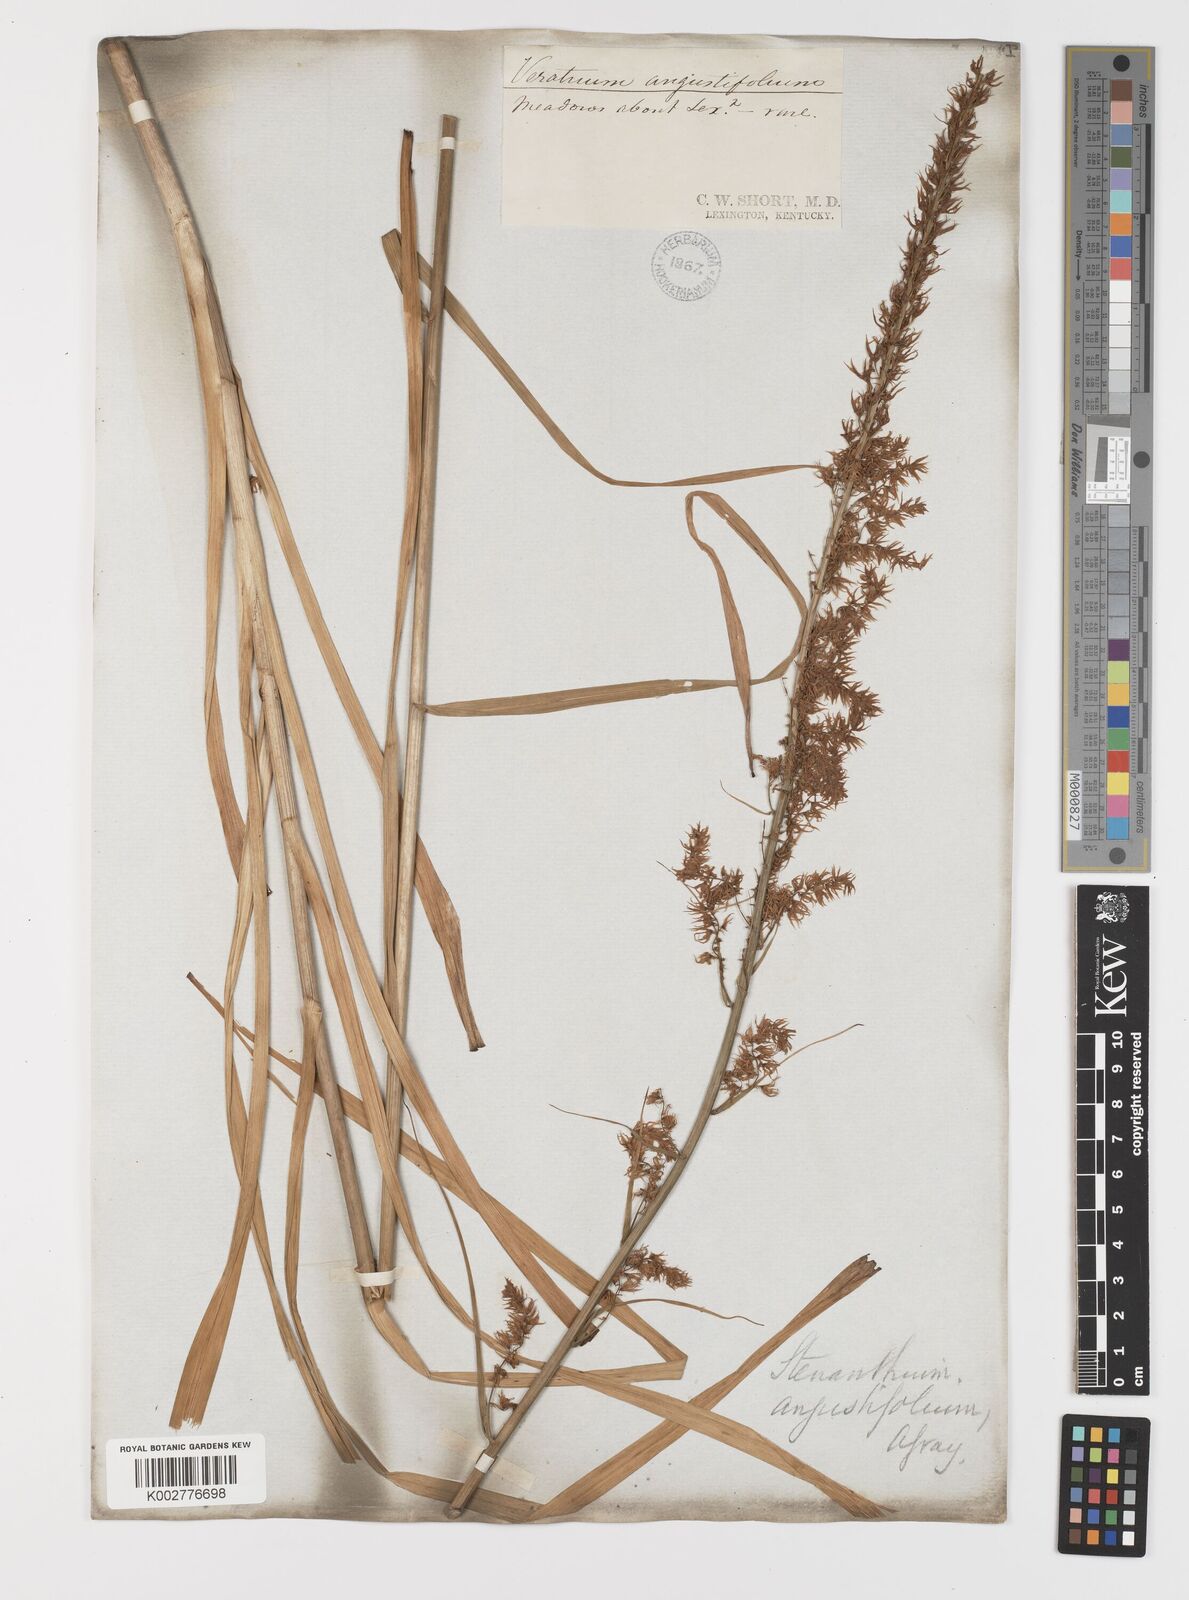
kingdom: Plantae
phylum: Tracheophyta
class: Liliopsida
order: Liliales
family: Melanthiaceae
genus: Stenanthium
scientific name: Stenanthium gramineum
